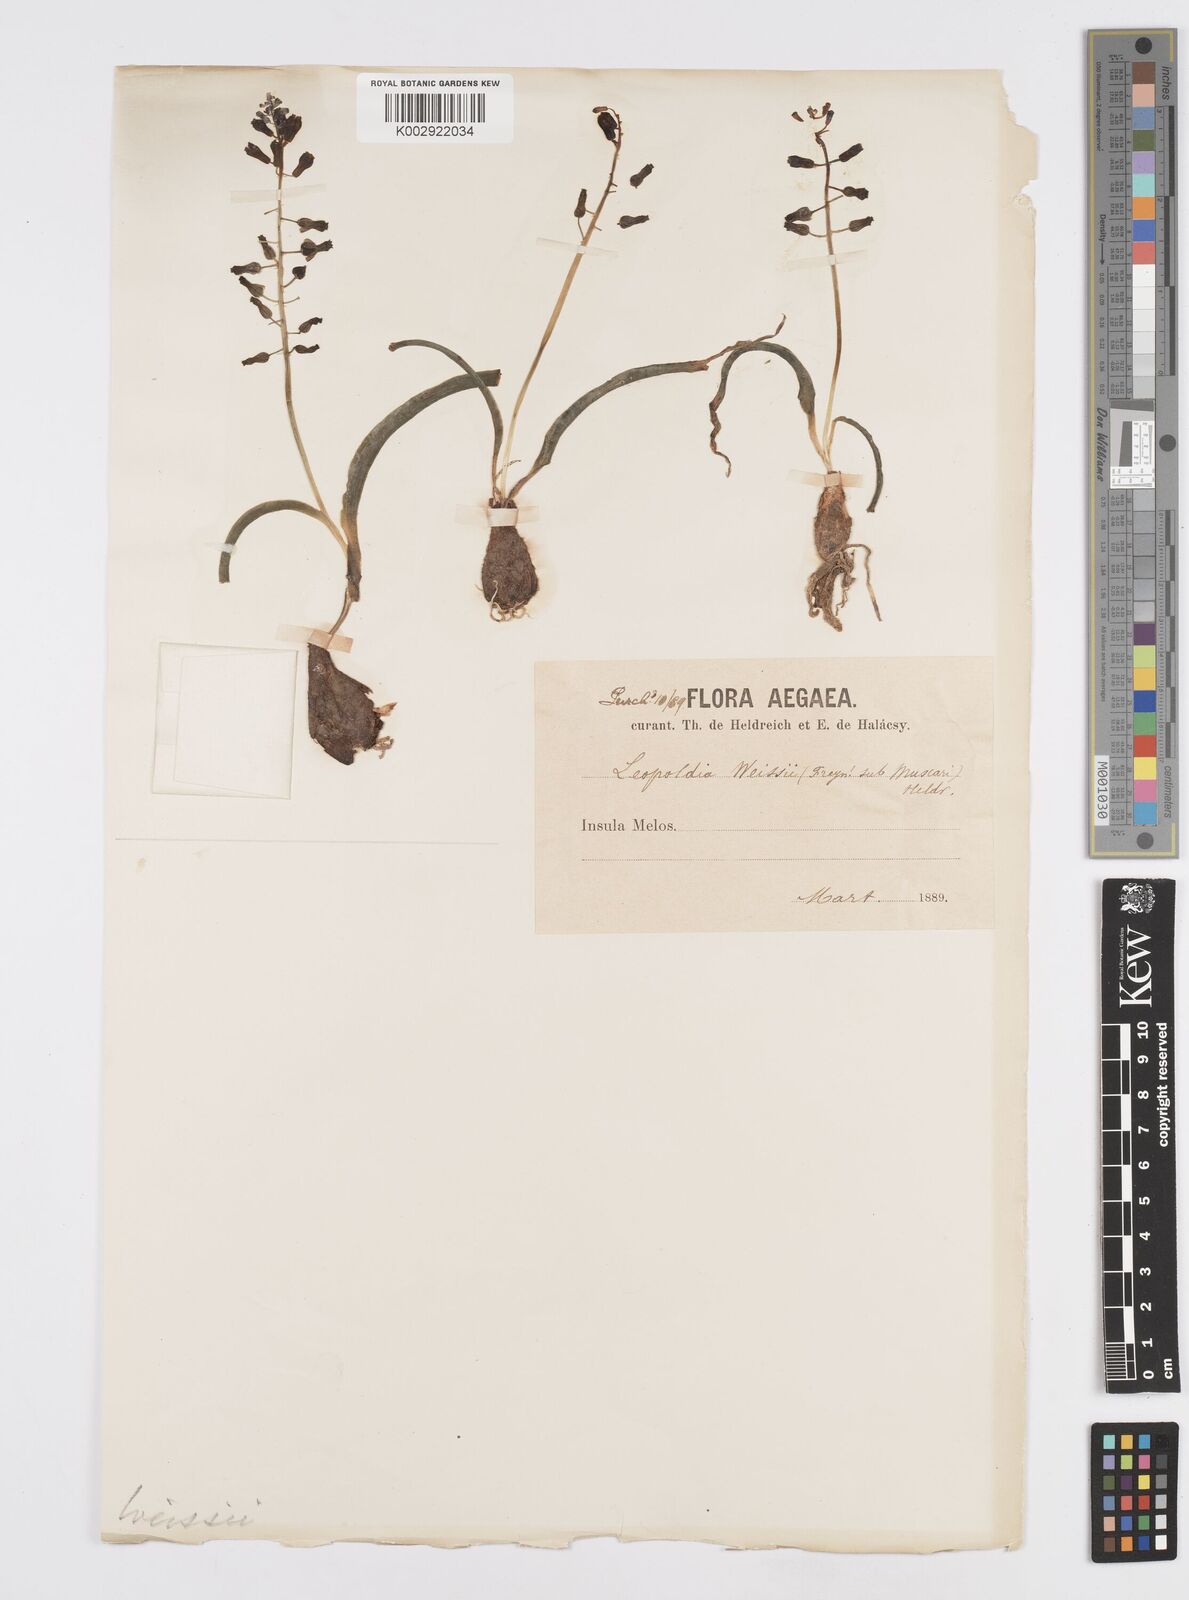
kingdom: Plantae
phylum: Tracheophyta
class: Liliopsida
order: Asparagales
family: Asparagaceae
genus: Muscari
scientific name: Muscari weissii
